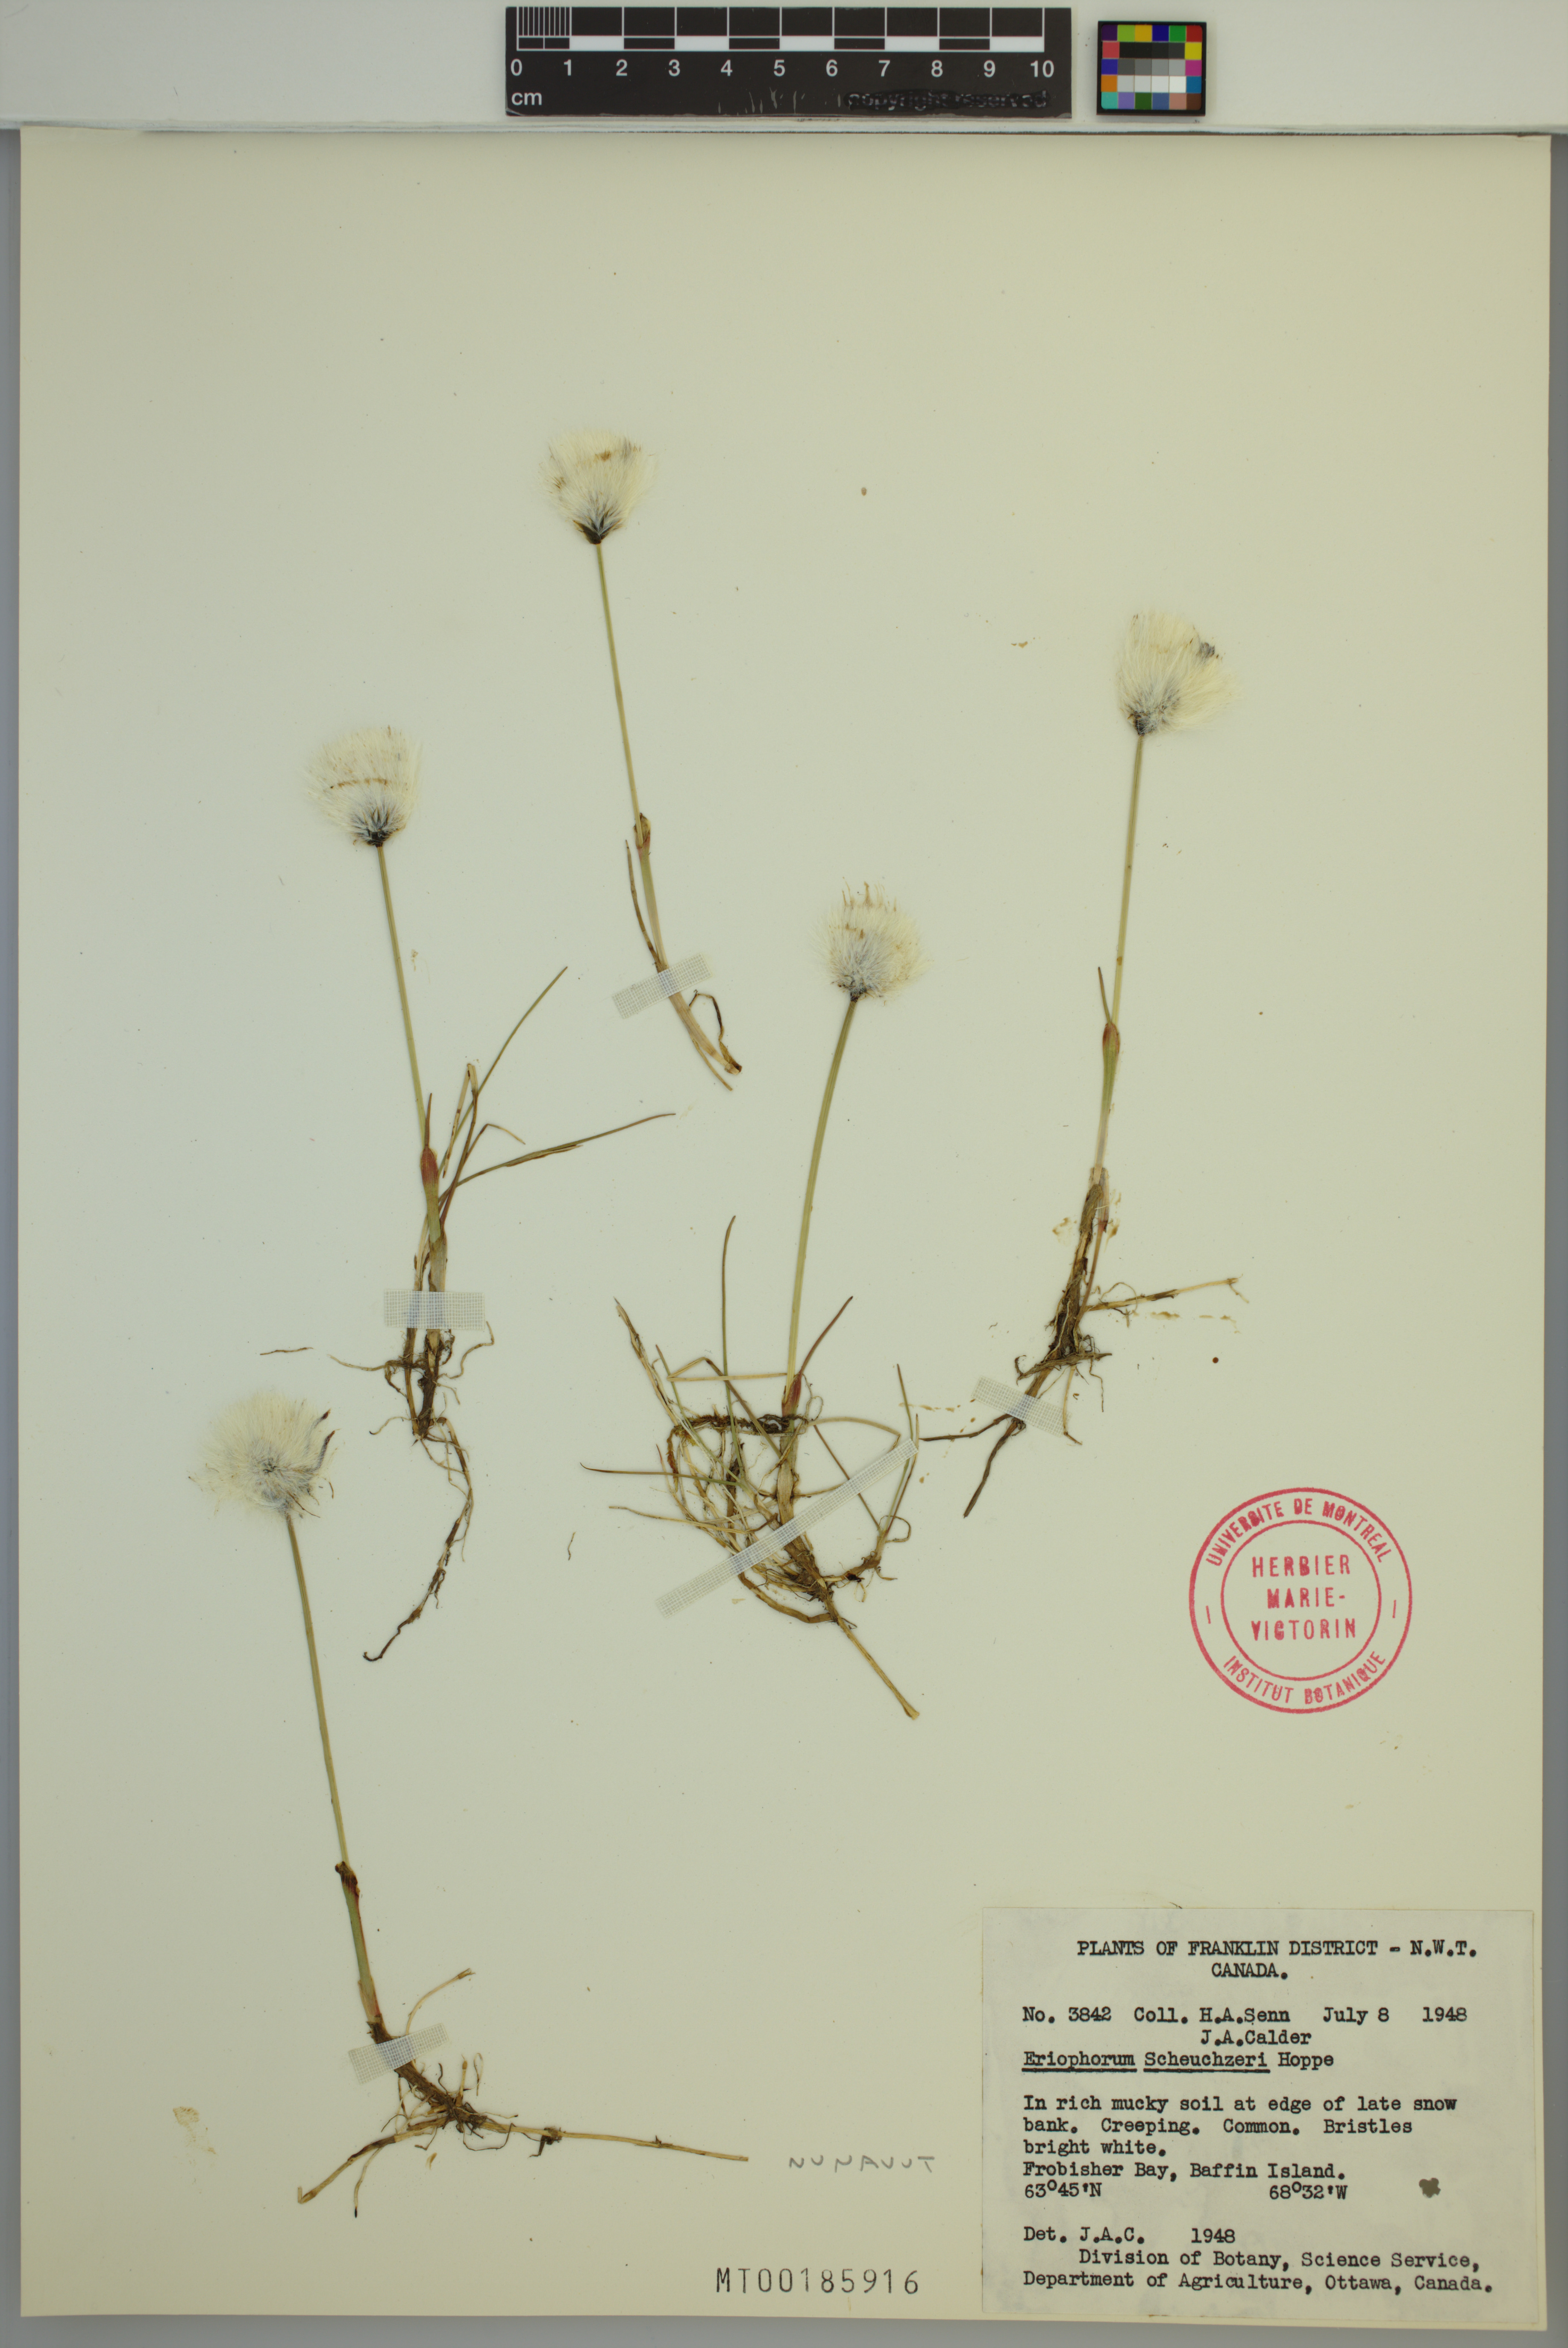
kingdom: Plantae
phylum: Tracheophyta
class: Liliopsida
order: Poales
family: Cyperaceae
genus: Eriophorum
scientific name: Eriophorum scheuchzeri
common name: Scheuchzer's cottongrass
